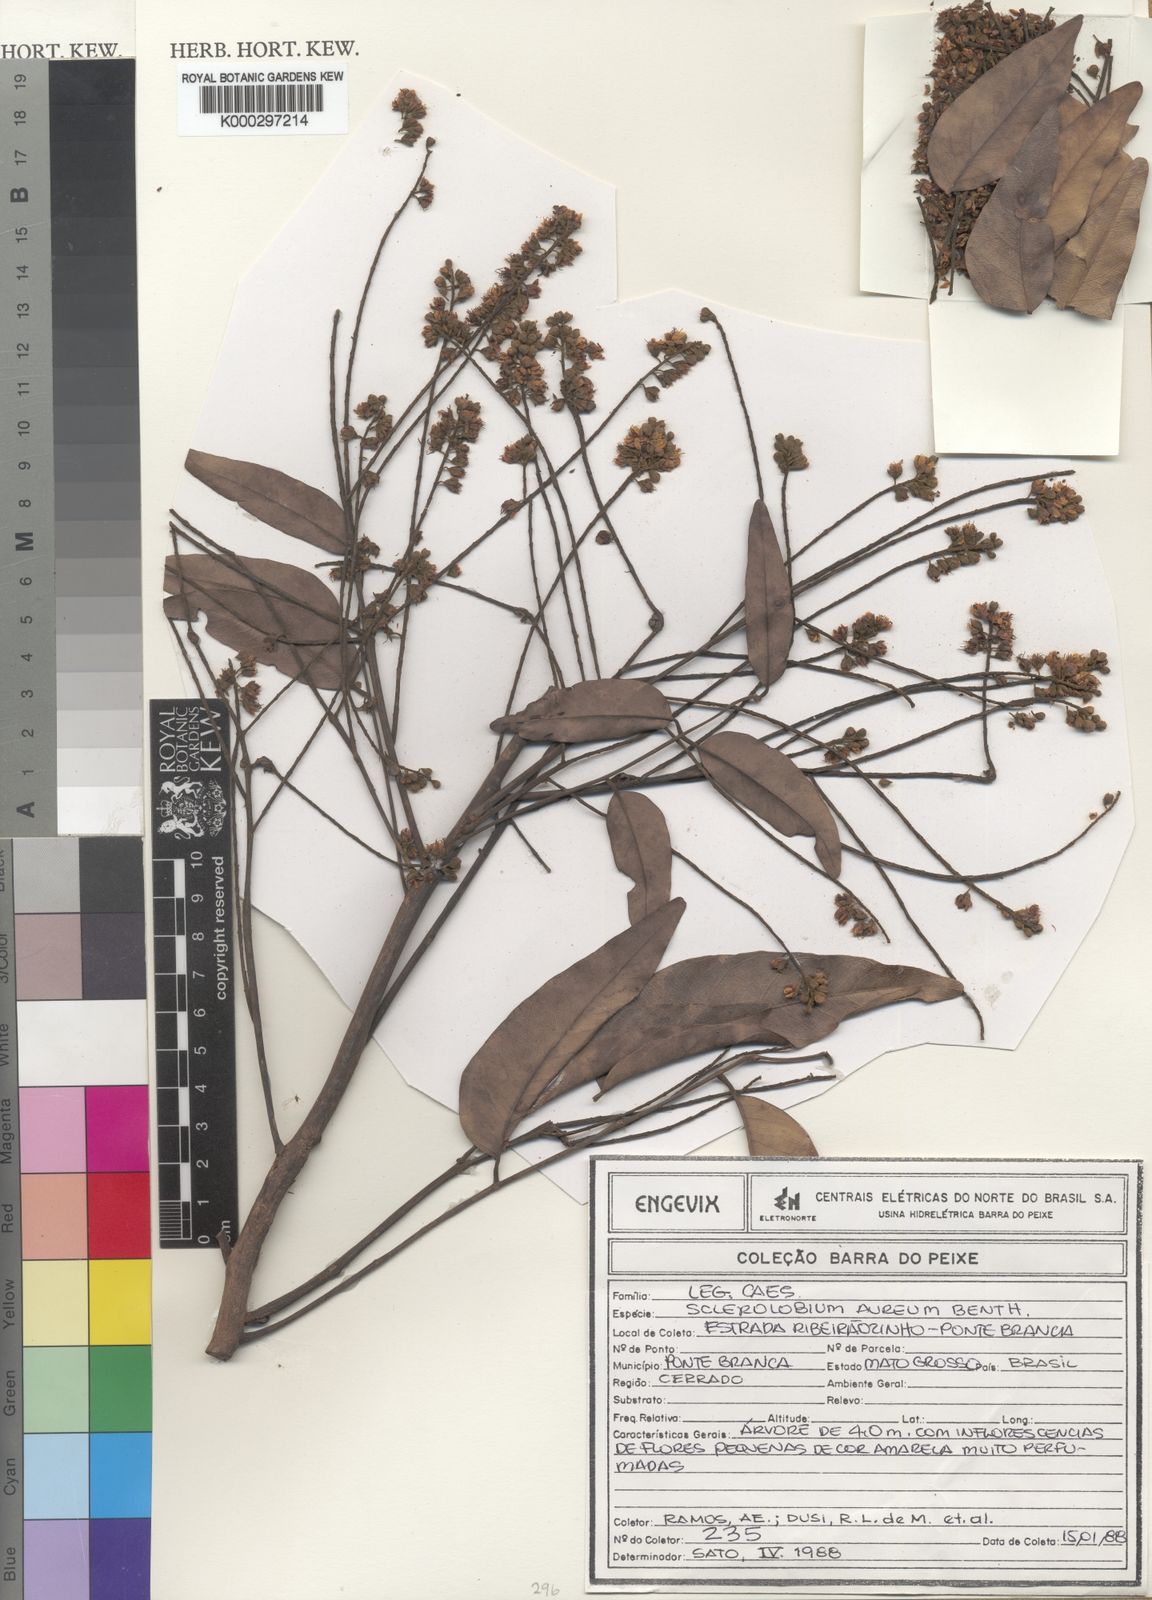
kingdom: Plantae
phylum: Tracheophyta
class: Magnoliopsida
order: Fabales
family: Fabaceae
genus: Tachigali
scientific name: Tachigali aurea
